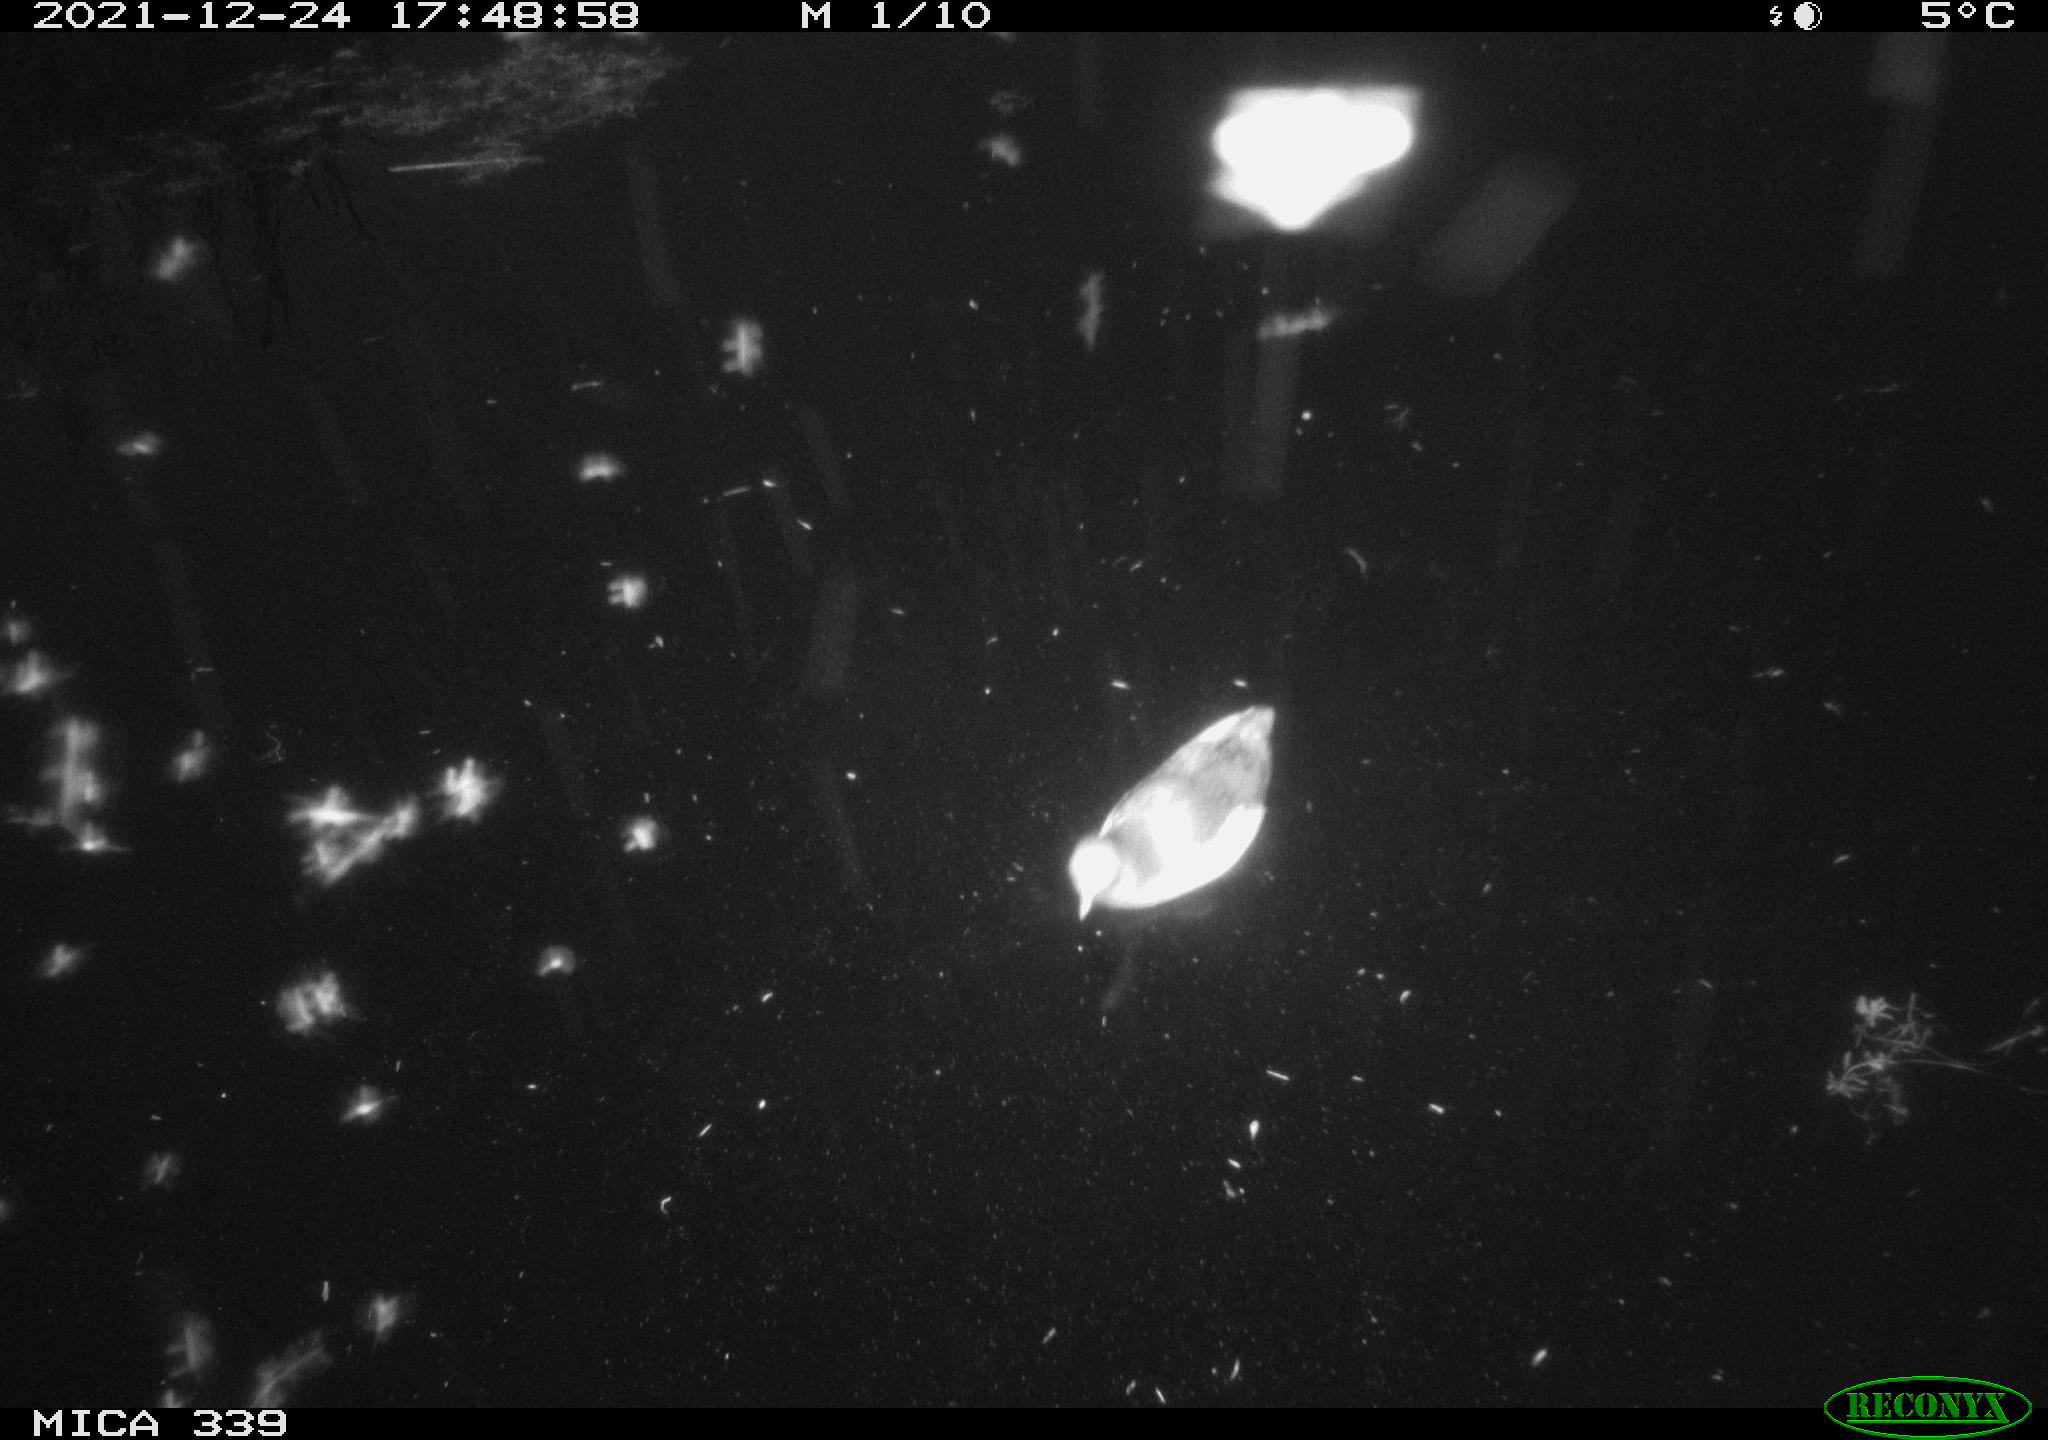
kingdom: Animalia
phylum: Chordata
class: Aves
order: Gruiformes
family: Rallidae
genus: Gallinula
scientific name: Gallinula chloropus
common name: Common moorhen
